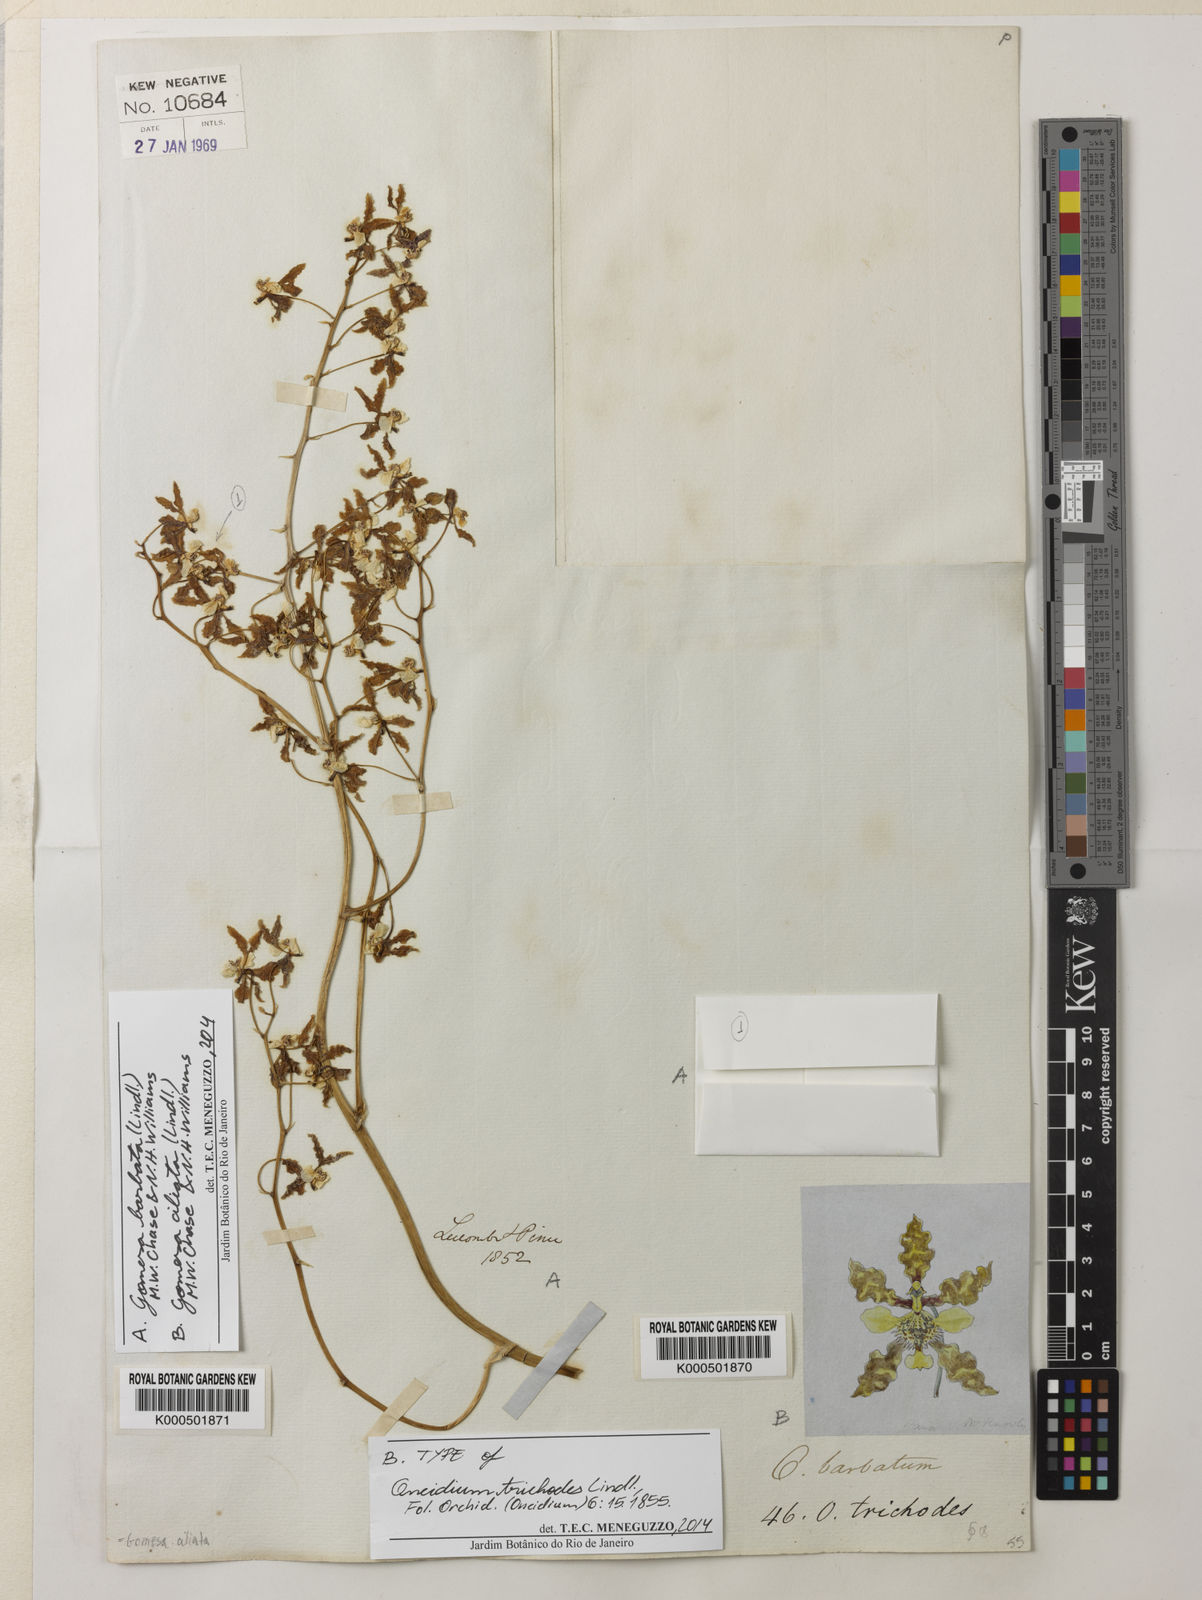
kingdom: Plantae
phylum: Tracheophyta
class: Liliopsida
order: Asparagales
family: Orchidaceae
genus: Gomesa
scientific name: Gomesa ciliata
